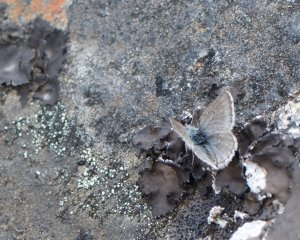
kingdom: Animalia
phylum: Arthropoda
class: Insecta
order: Lepidoptera
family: Lycaenidae
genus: Agriades
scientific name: Agriades glandon
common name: Arctic Blue
